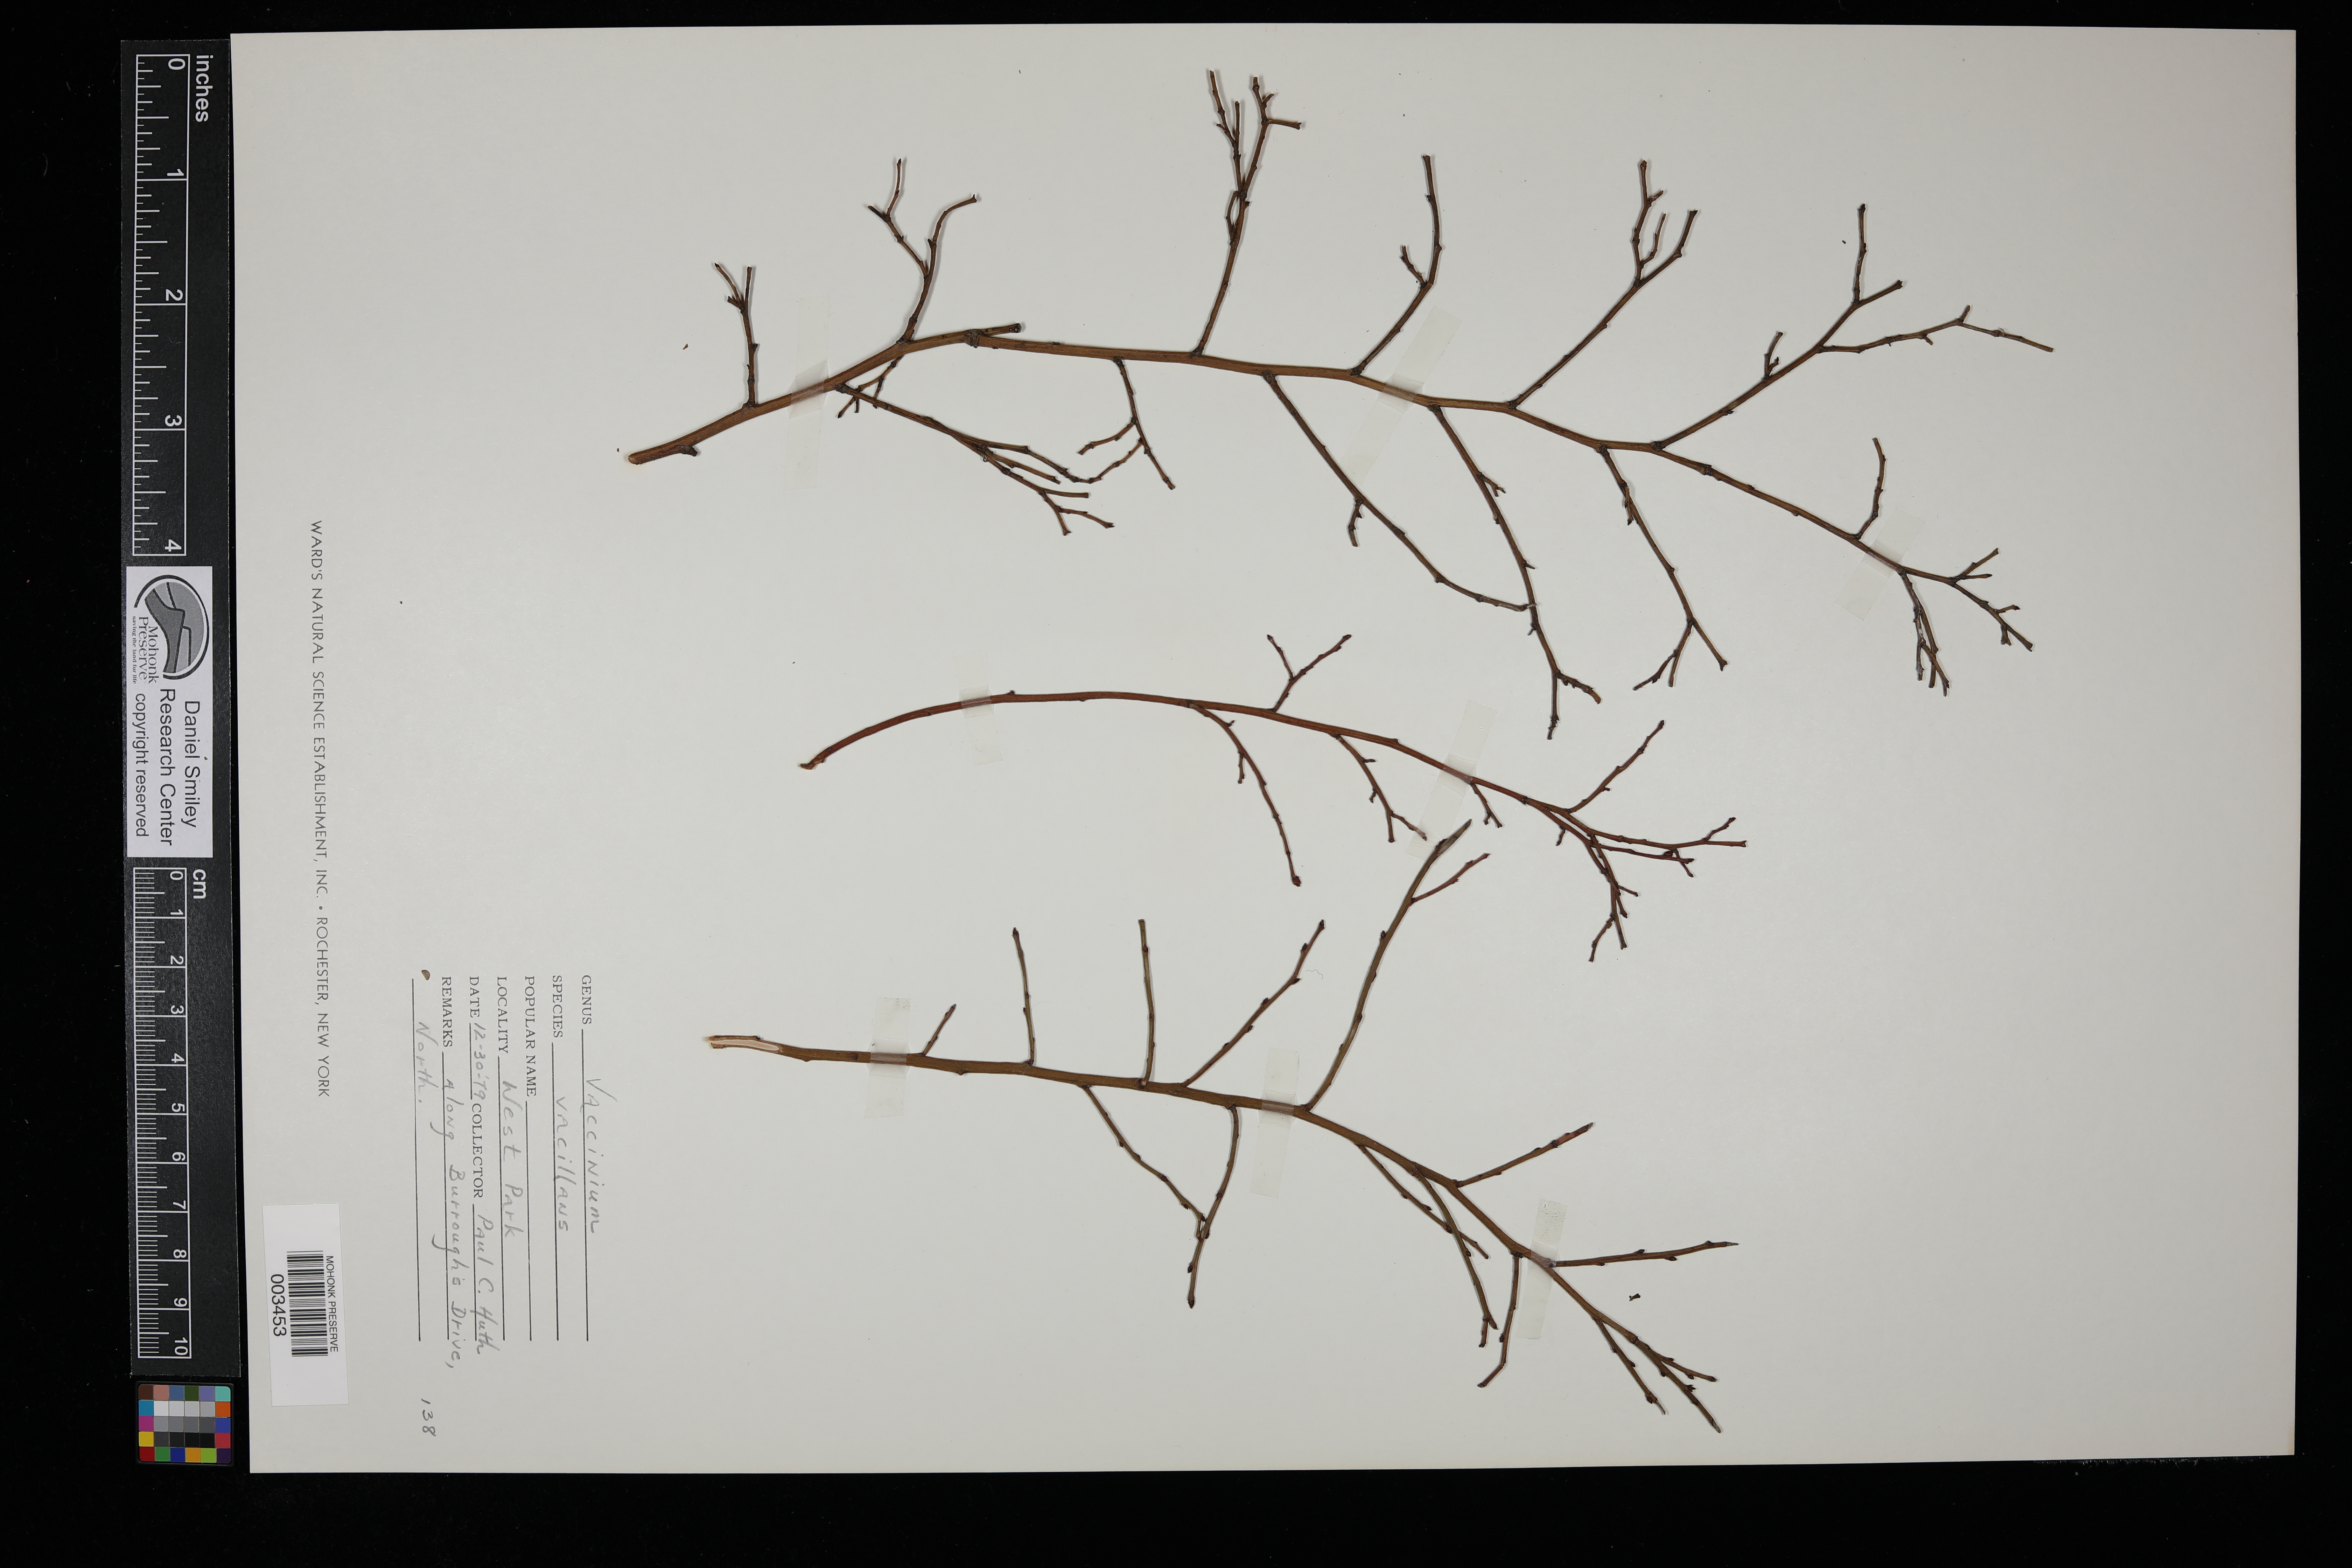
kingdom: Plantae
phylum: Tracheophyta
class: Magnoliopsida
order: Ericales
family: Ericaceae
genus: Vaccinium
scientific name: Vaccinium pallidum
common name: Blue ridge blueberry
